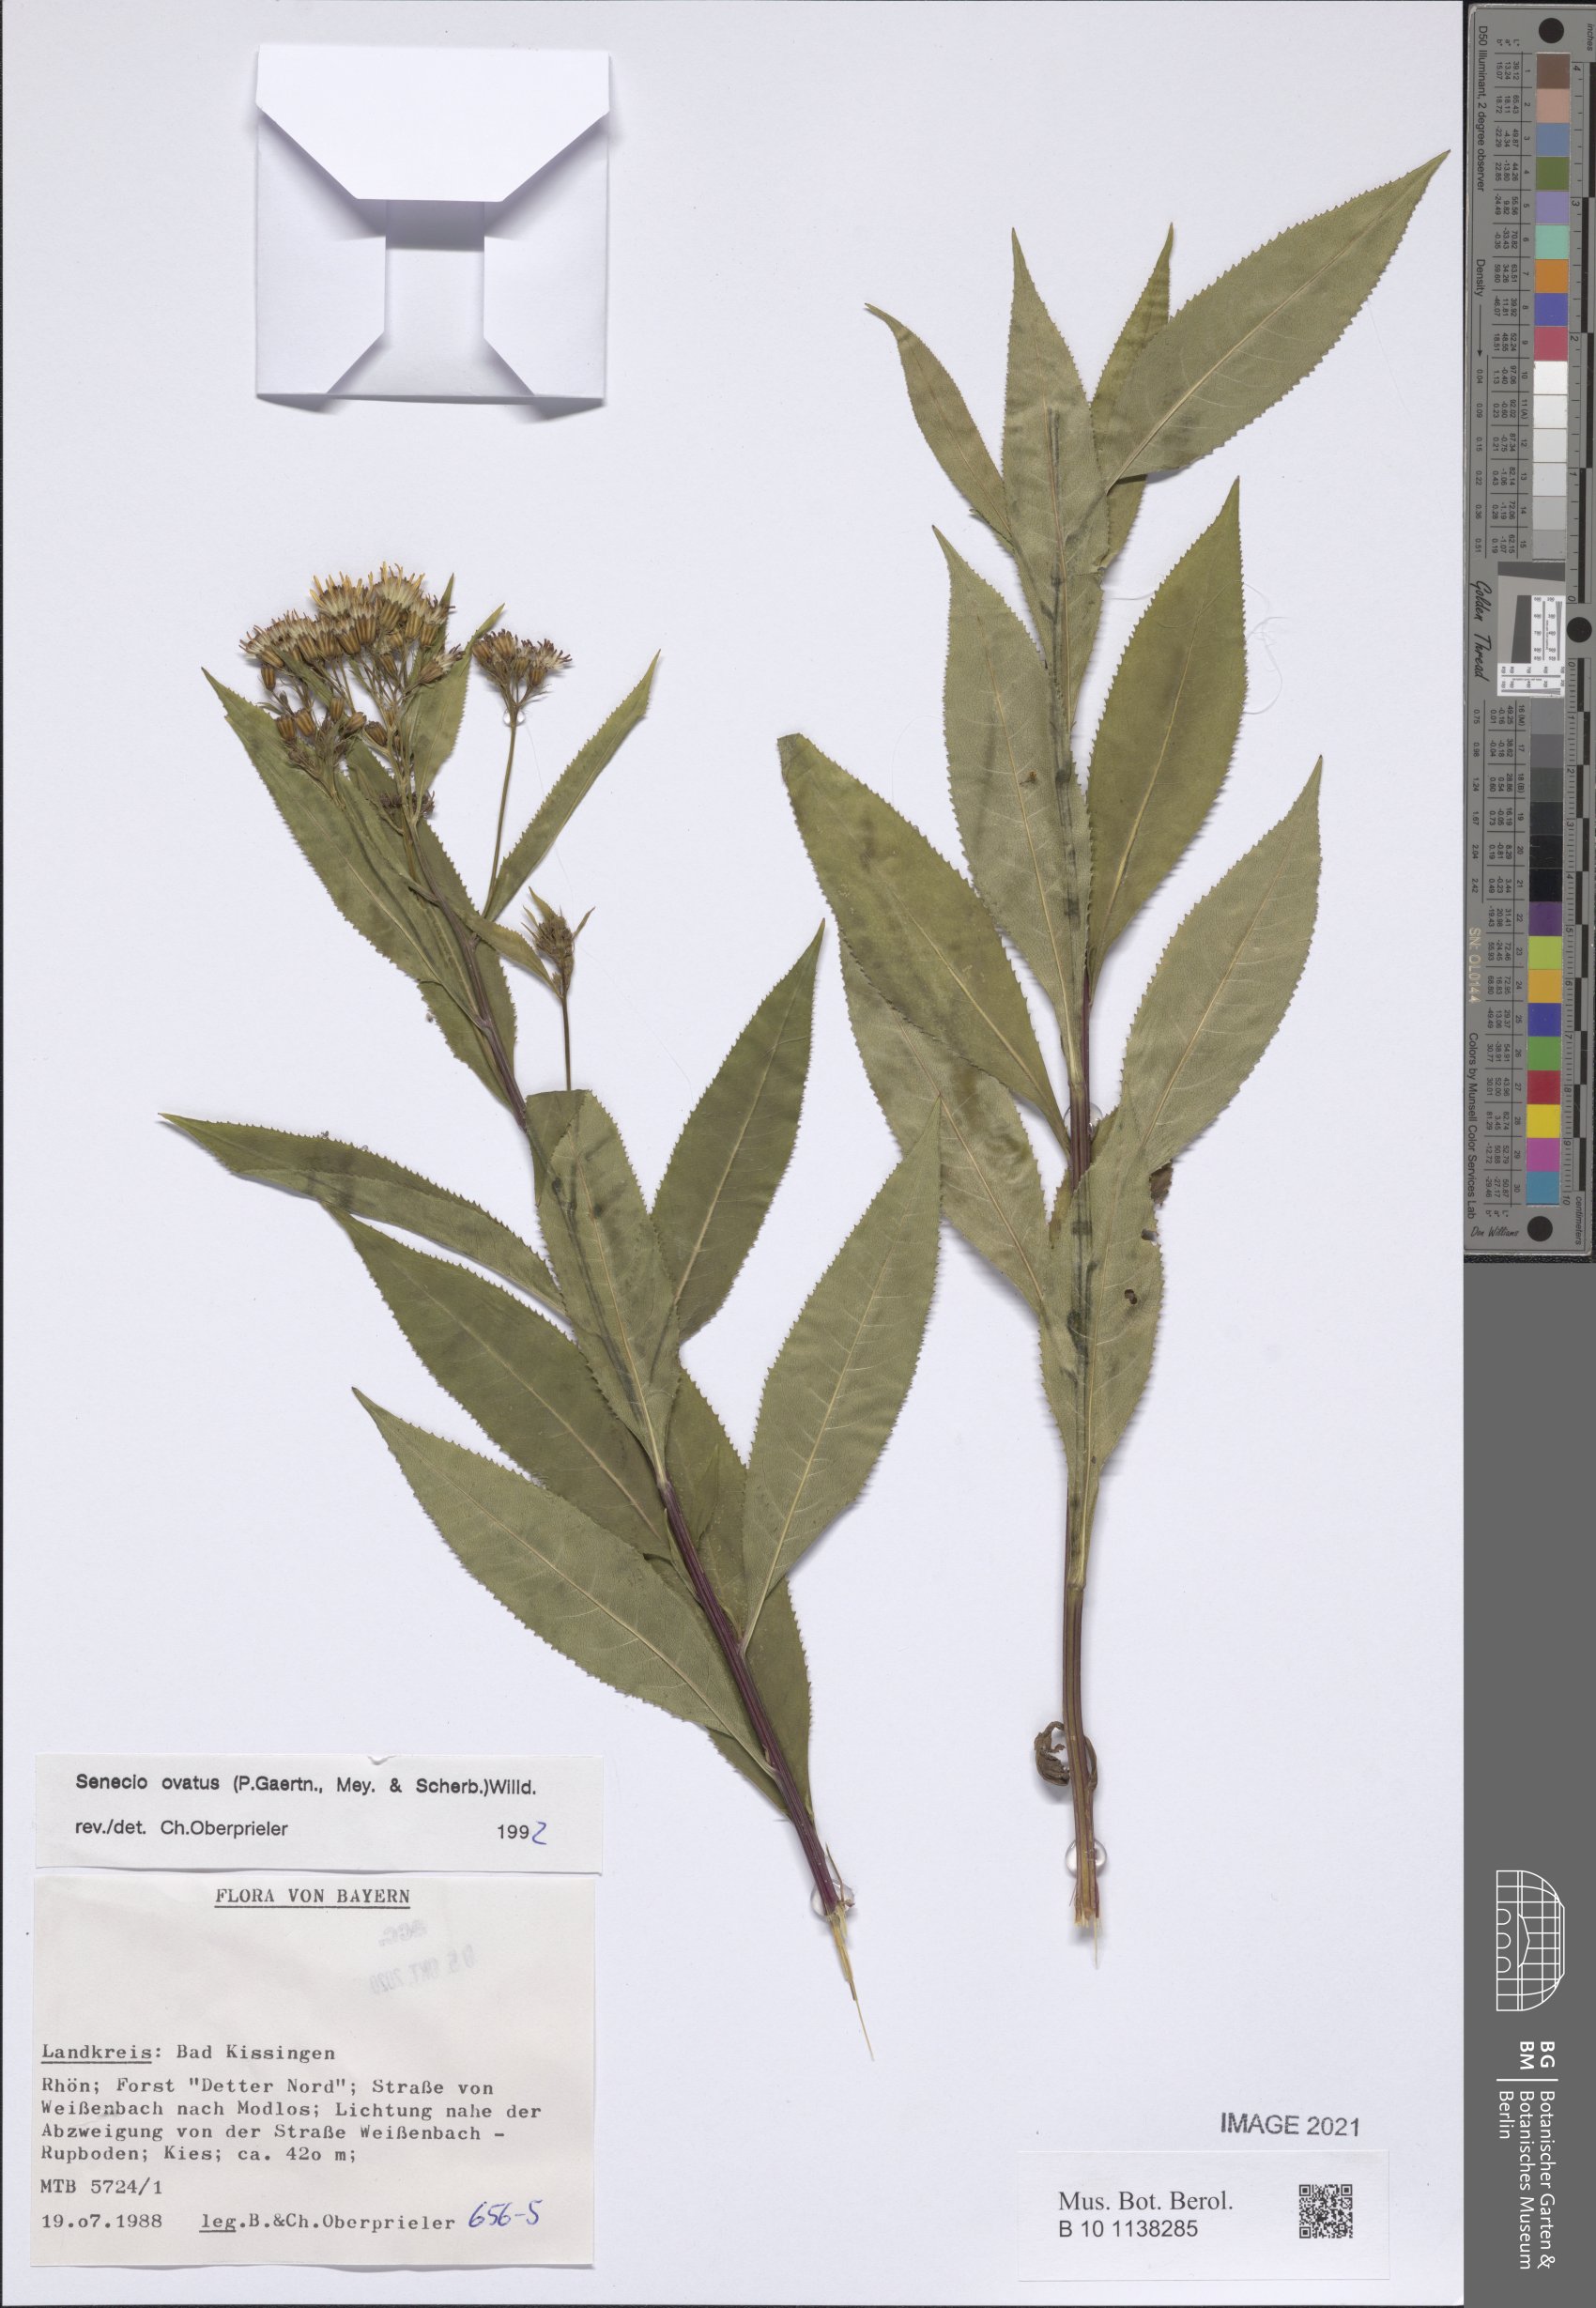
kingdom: Plantae
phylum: Tracheophyta
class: Magnoliopsida
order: Asterales
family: Asteraceae
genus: Senecio
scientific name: Senecio ovatus
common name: Wood ragwort
